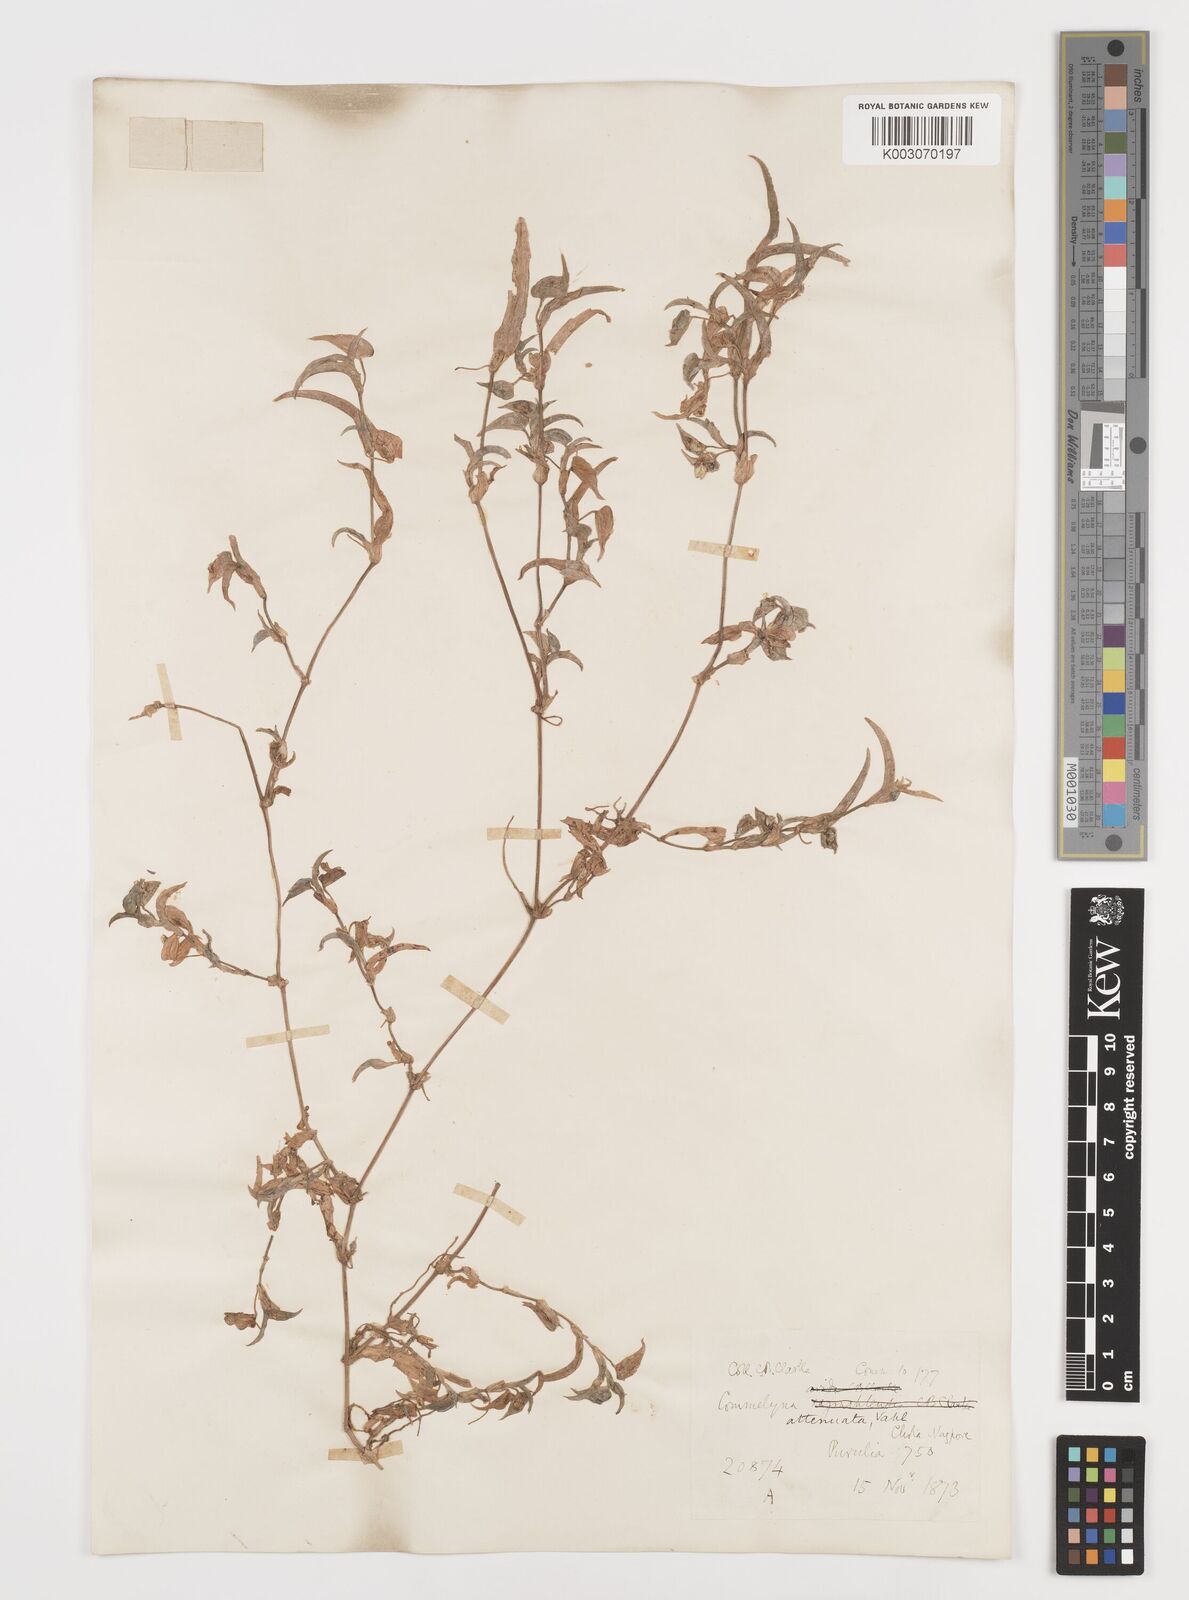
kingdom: Plantae
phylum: Tracheophyta
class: Liliopsida
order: Commelinales
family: Commelinaceae
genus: Commelina
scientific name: Commelina attenuata
